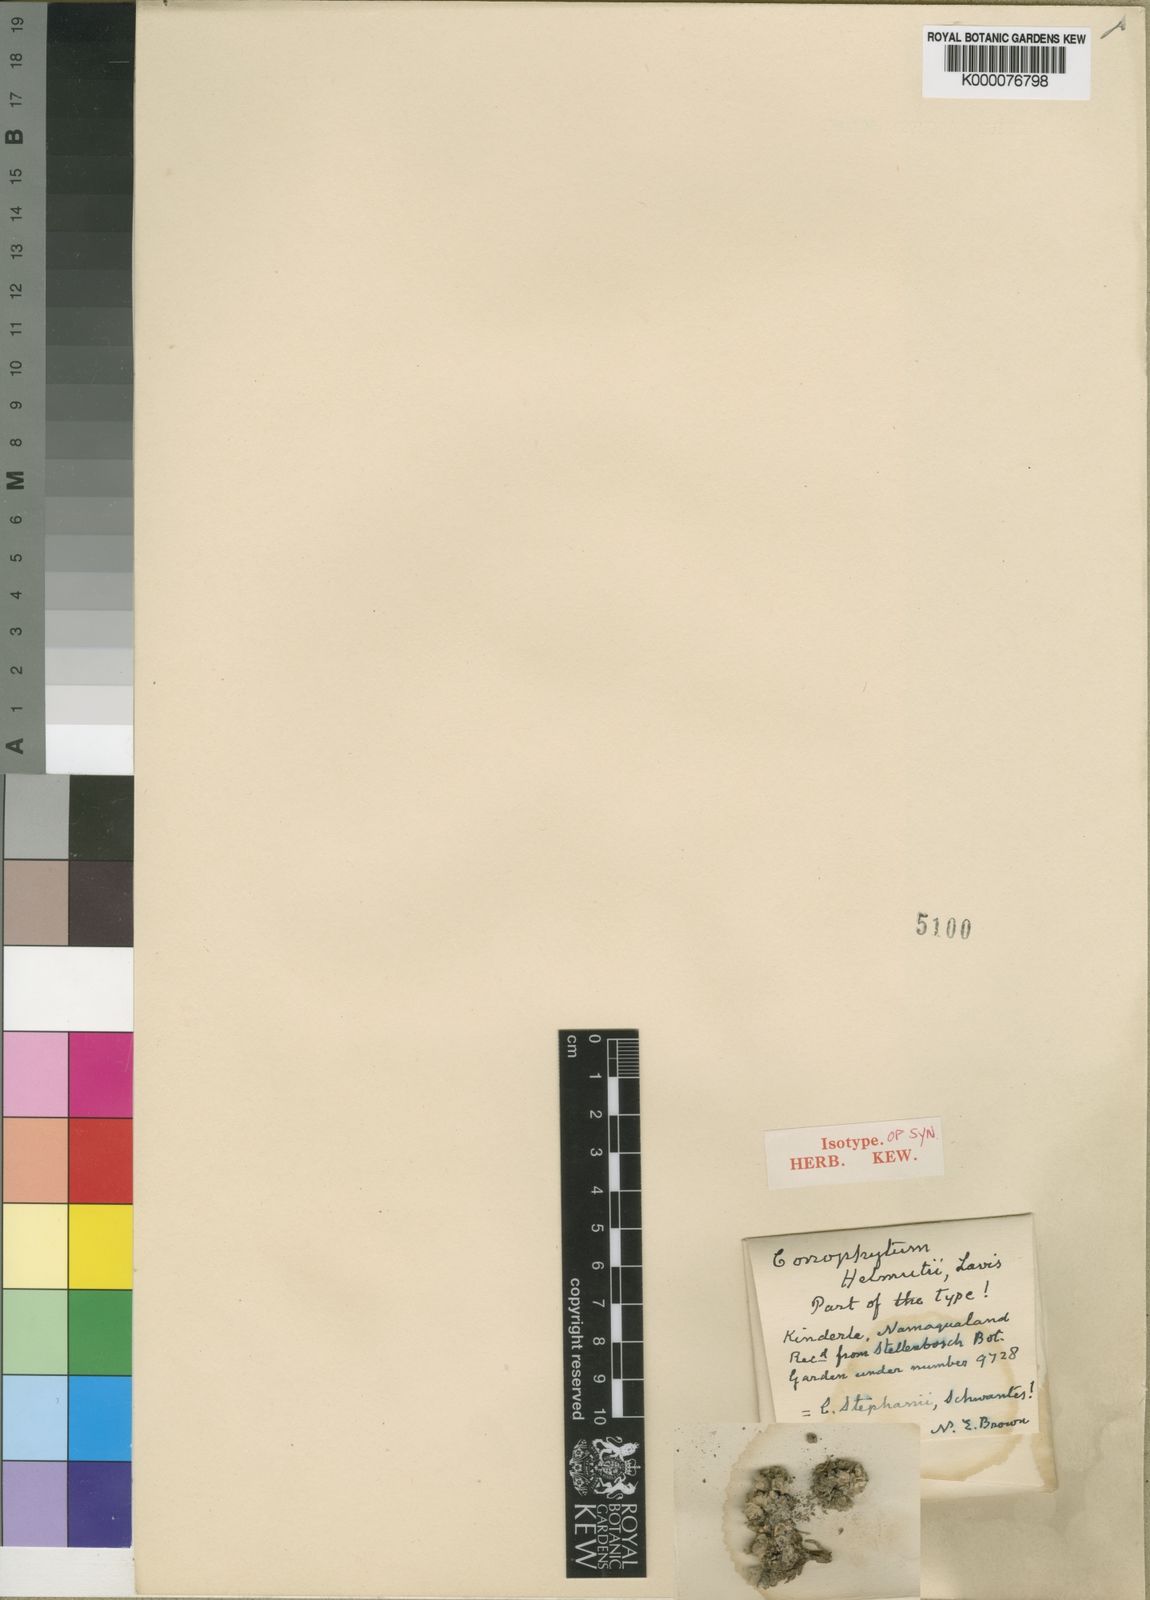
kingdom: Plantae
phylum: Tracheophyta
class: Magnoliopsida
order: Caryophyllales
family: Aizoaceae
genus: Conophytum
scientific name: Conophytum stephanii
